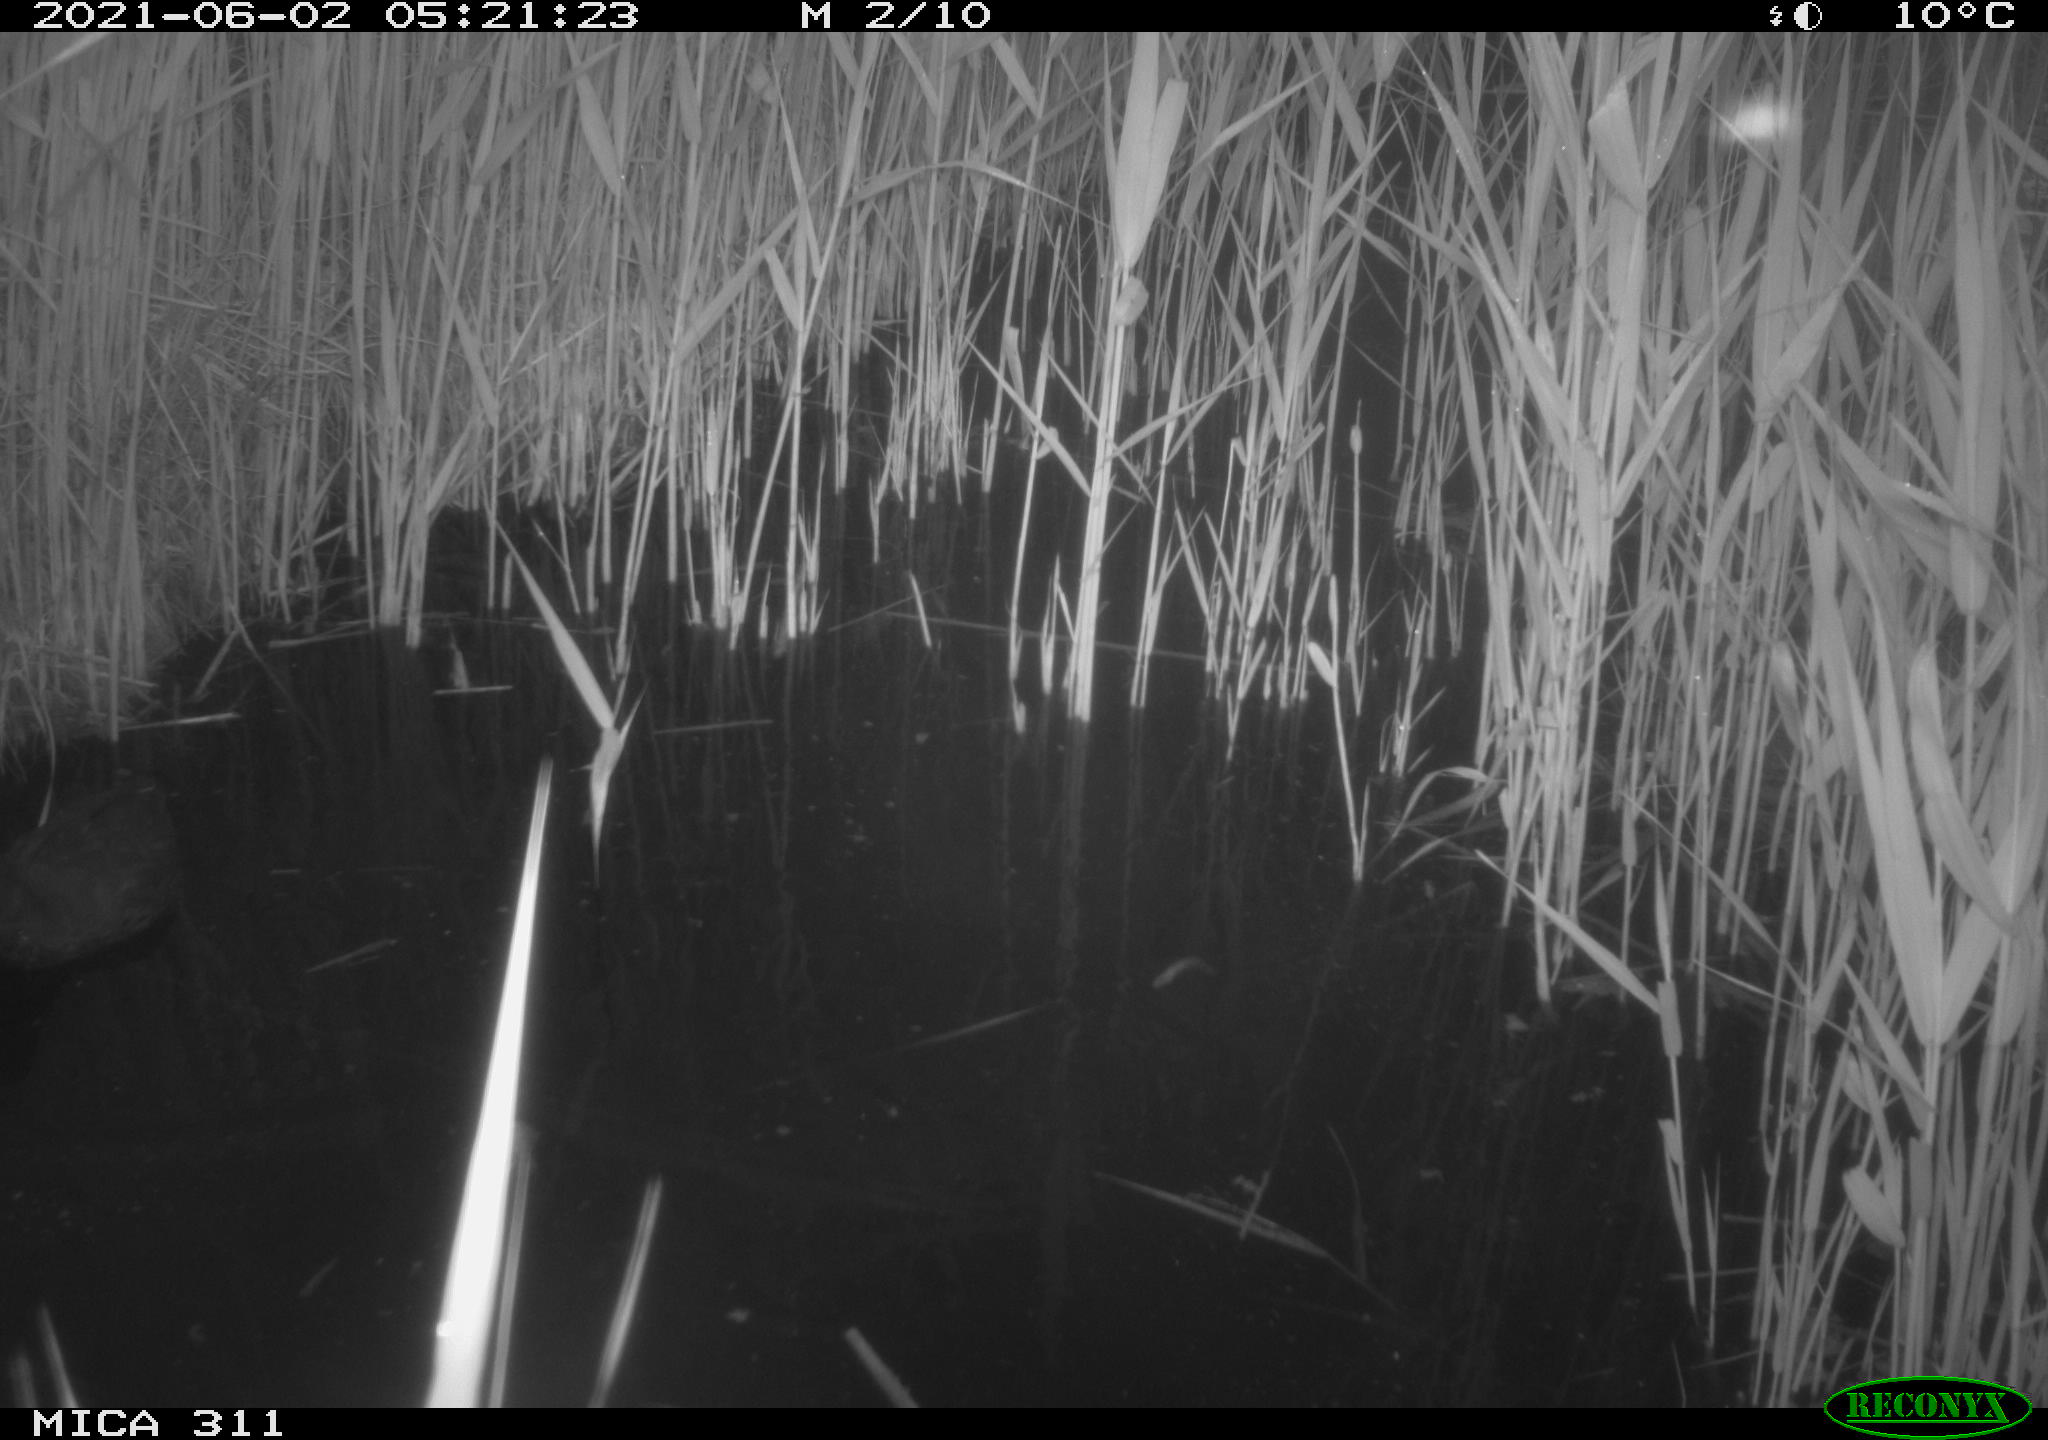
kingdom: Animalia
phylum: Chordata
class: Aves
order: Gruiformes
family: Rallidae
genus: Fulica
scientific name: Fulica atra
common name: Eurasian coot
